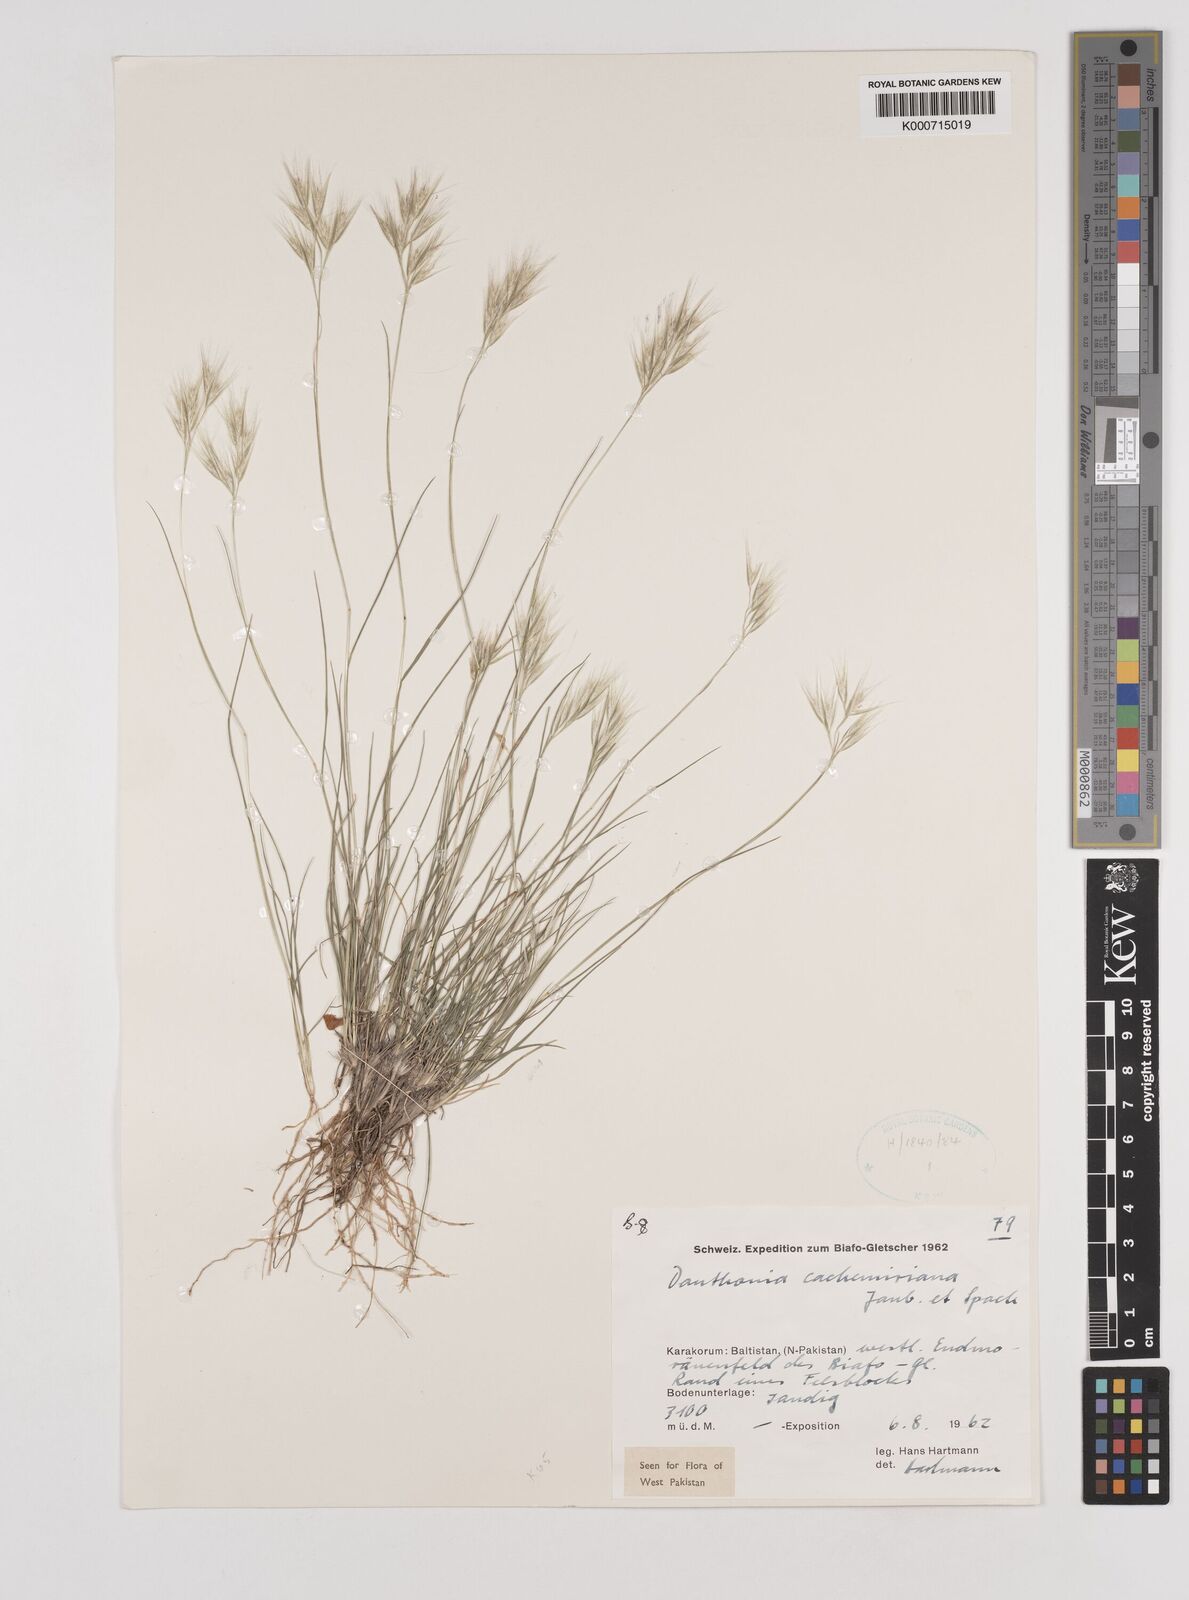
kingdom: Plantae
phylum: Tracheophyta
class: Liliopsida
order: Poales
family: Poaceae
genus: Rytidosperma
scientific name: Rytidosperma
